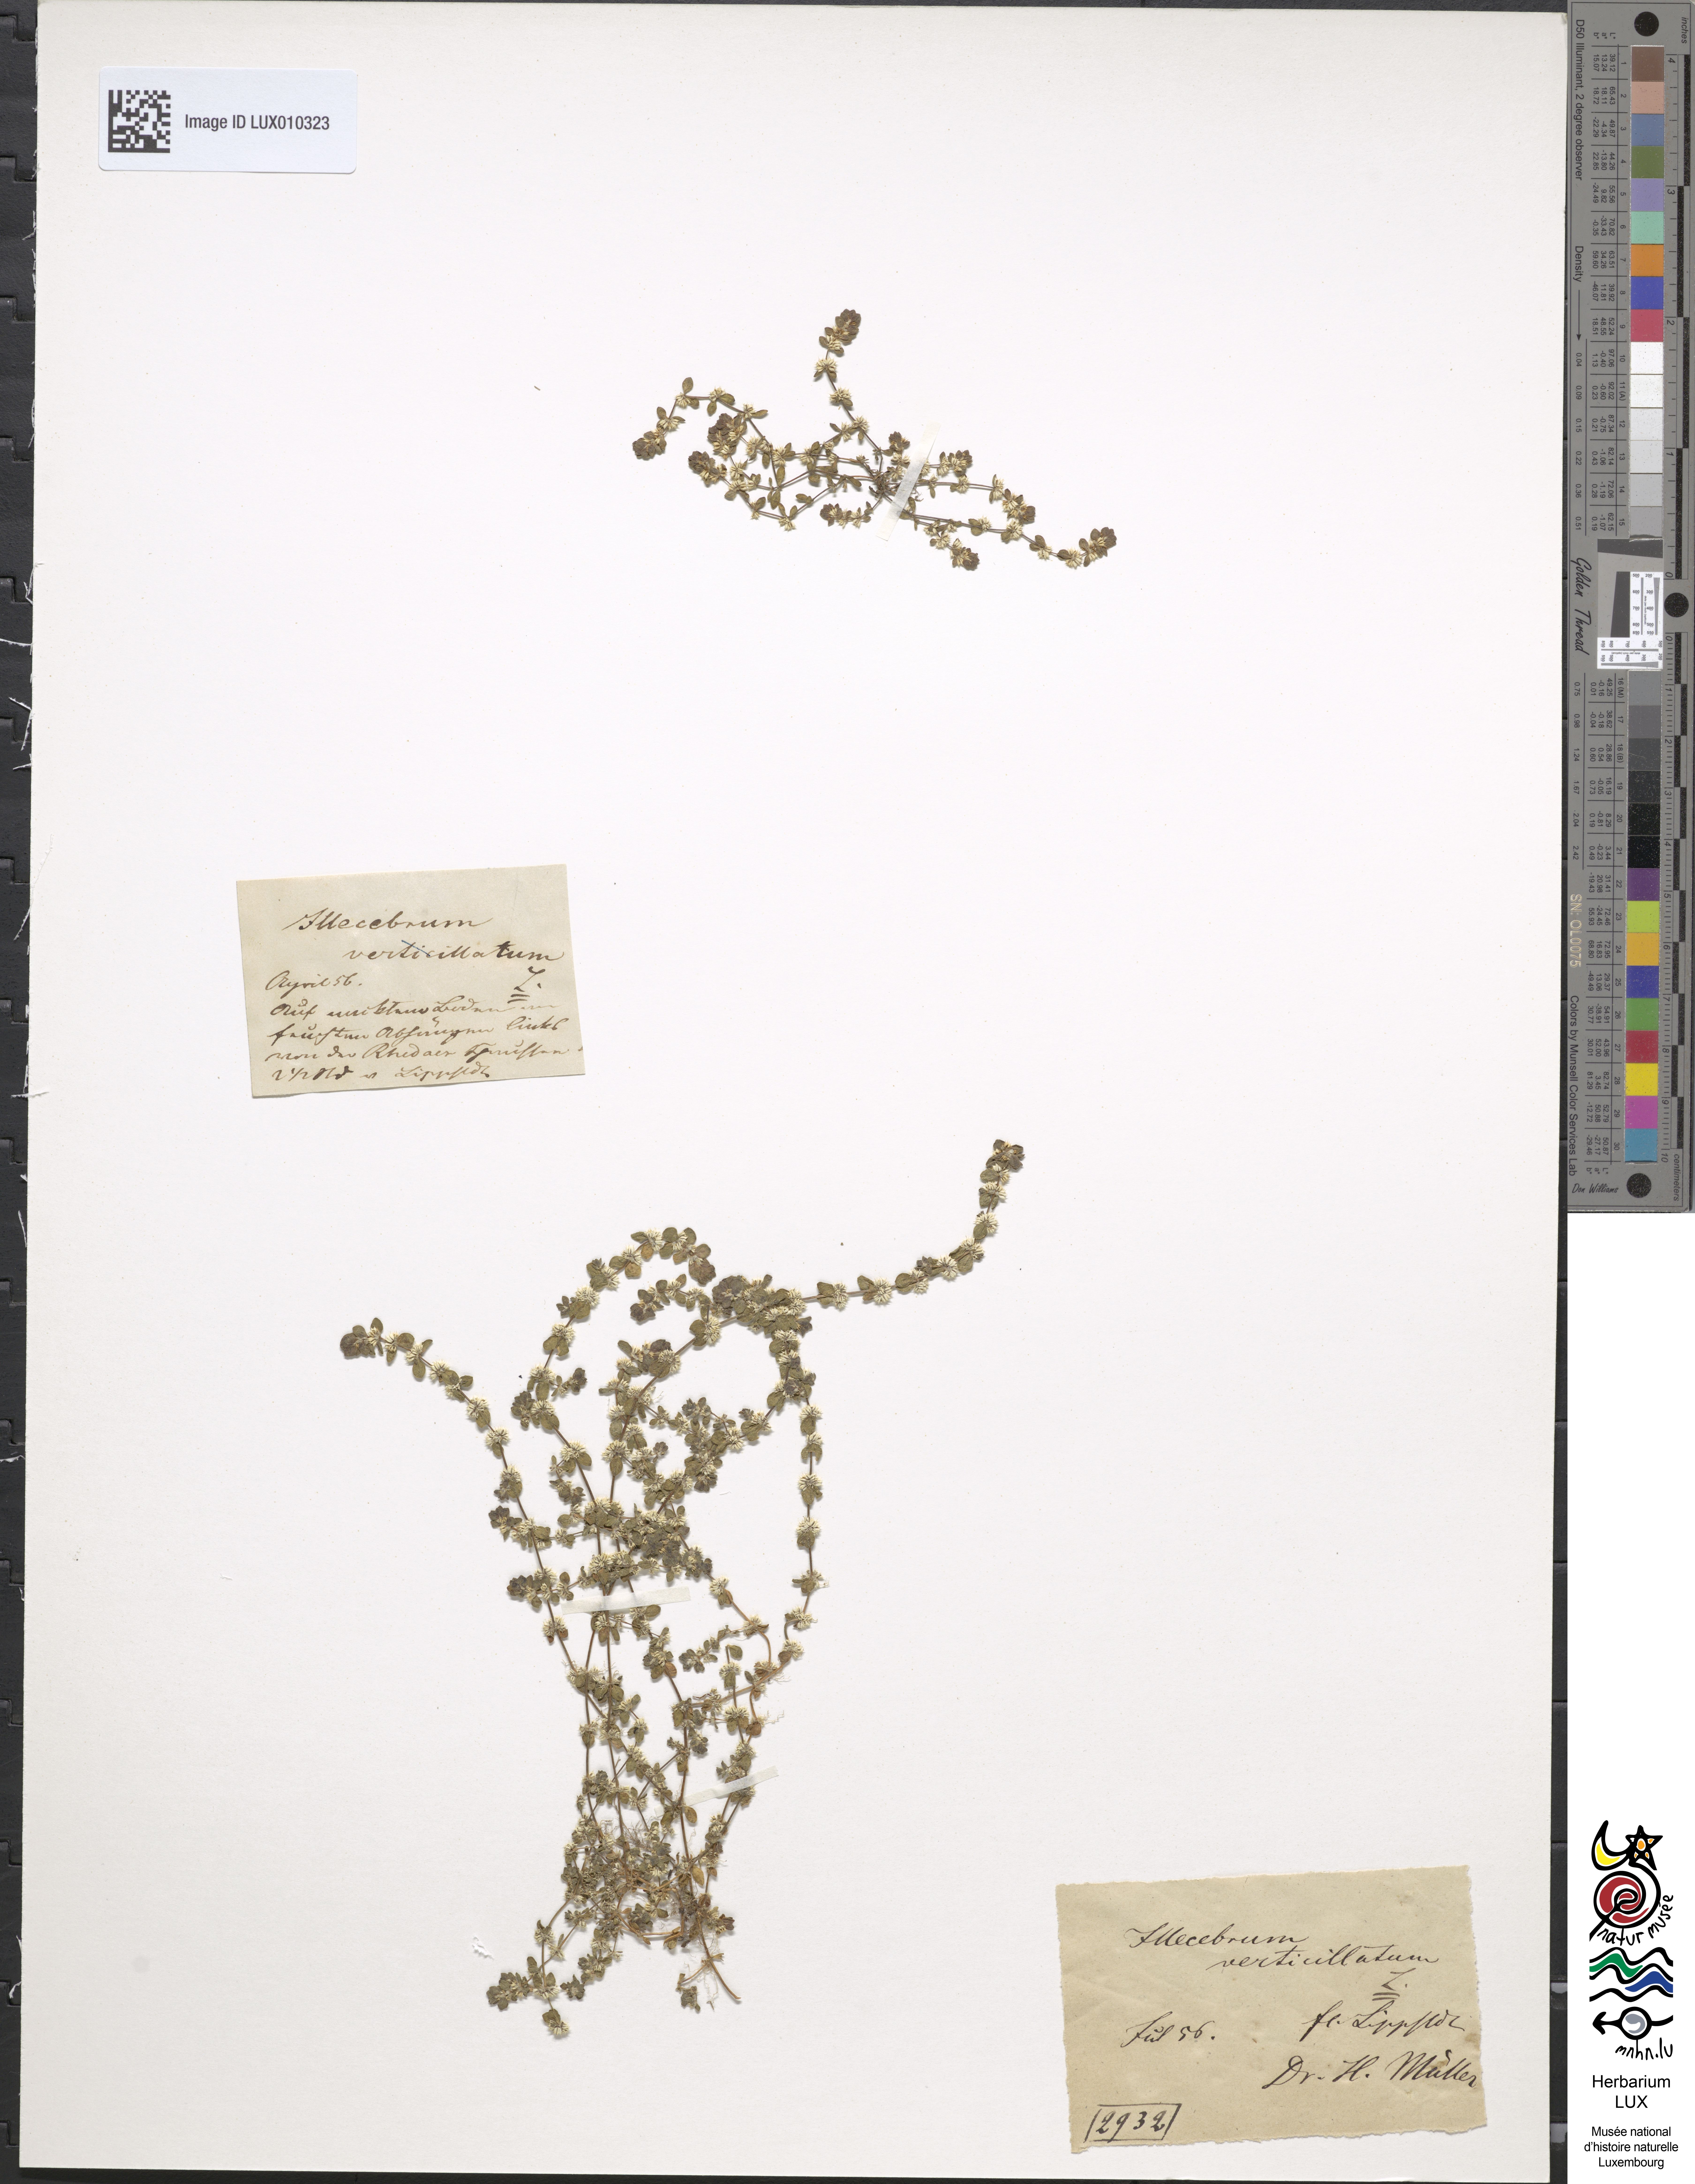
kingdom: Plantae
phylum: Tracheophyta
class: Magnoliopsida
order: Caryophyllales
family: Caryophyllaceae
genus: Illecebrum
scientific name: Illecebrum verticillatum
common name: Coral necklace
